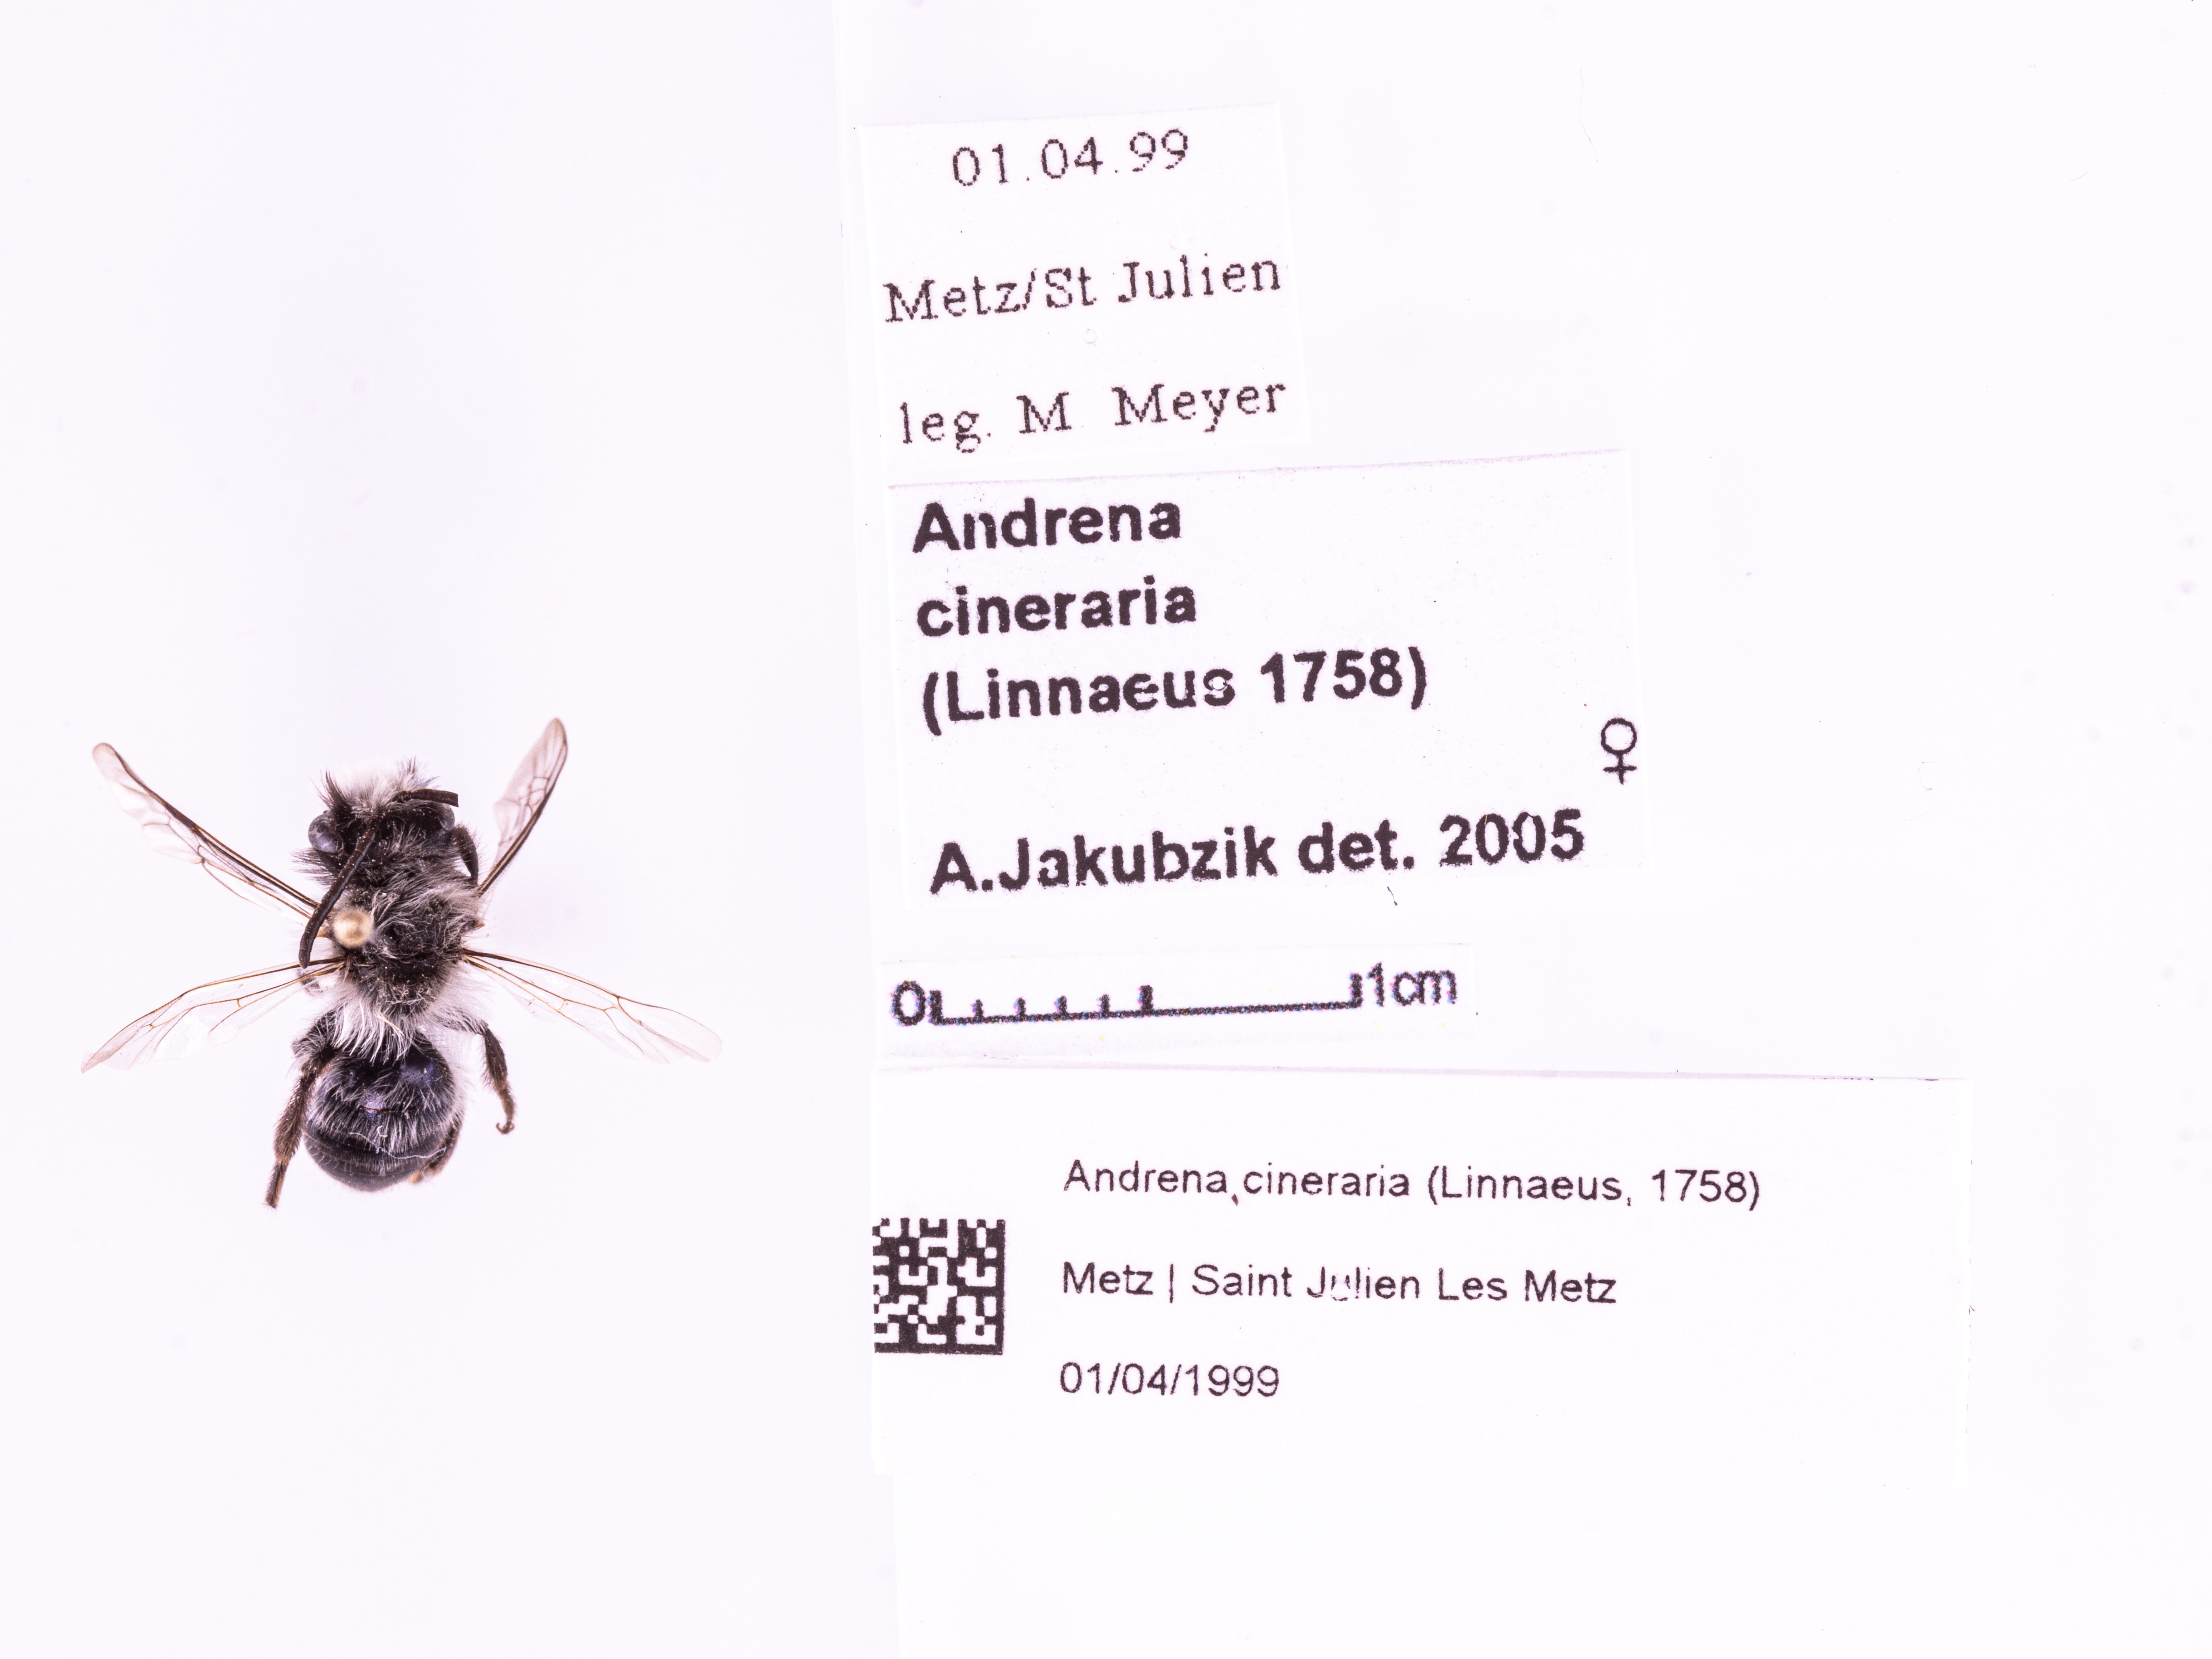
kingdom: Animalia
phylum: Arthropoda
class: Insecta
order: Hymenoptera
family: Andrenidae
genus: Andrena
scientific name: Andrena cineraria
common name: Ashy mining bee
